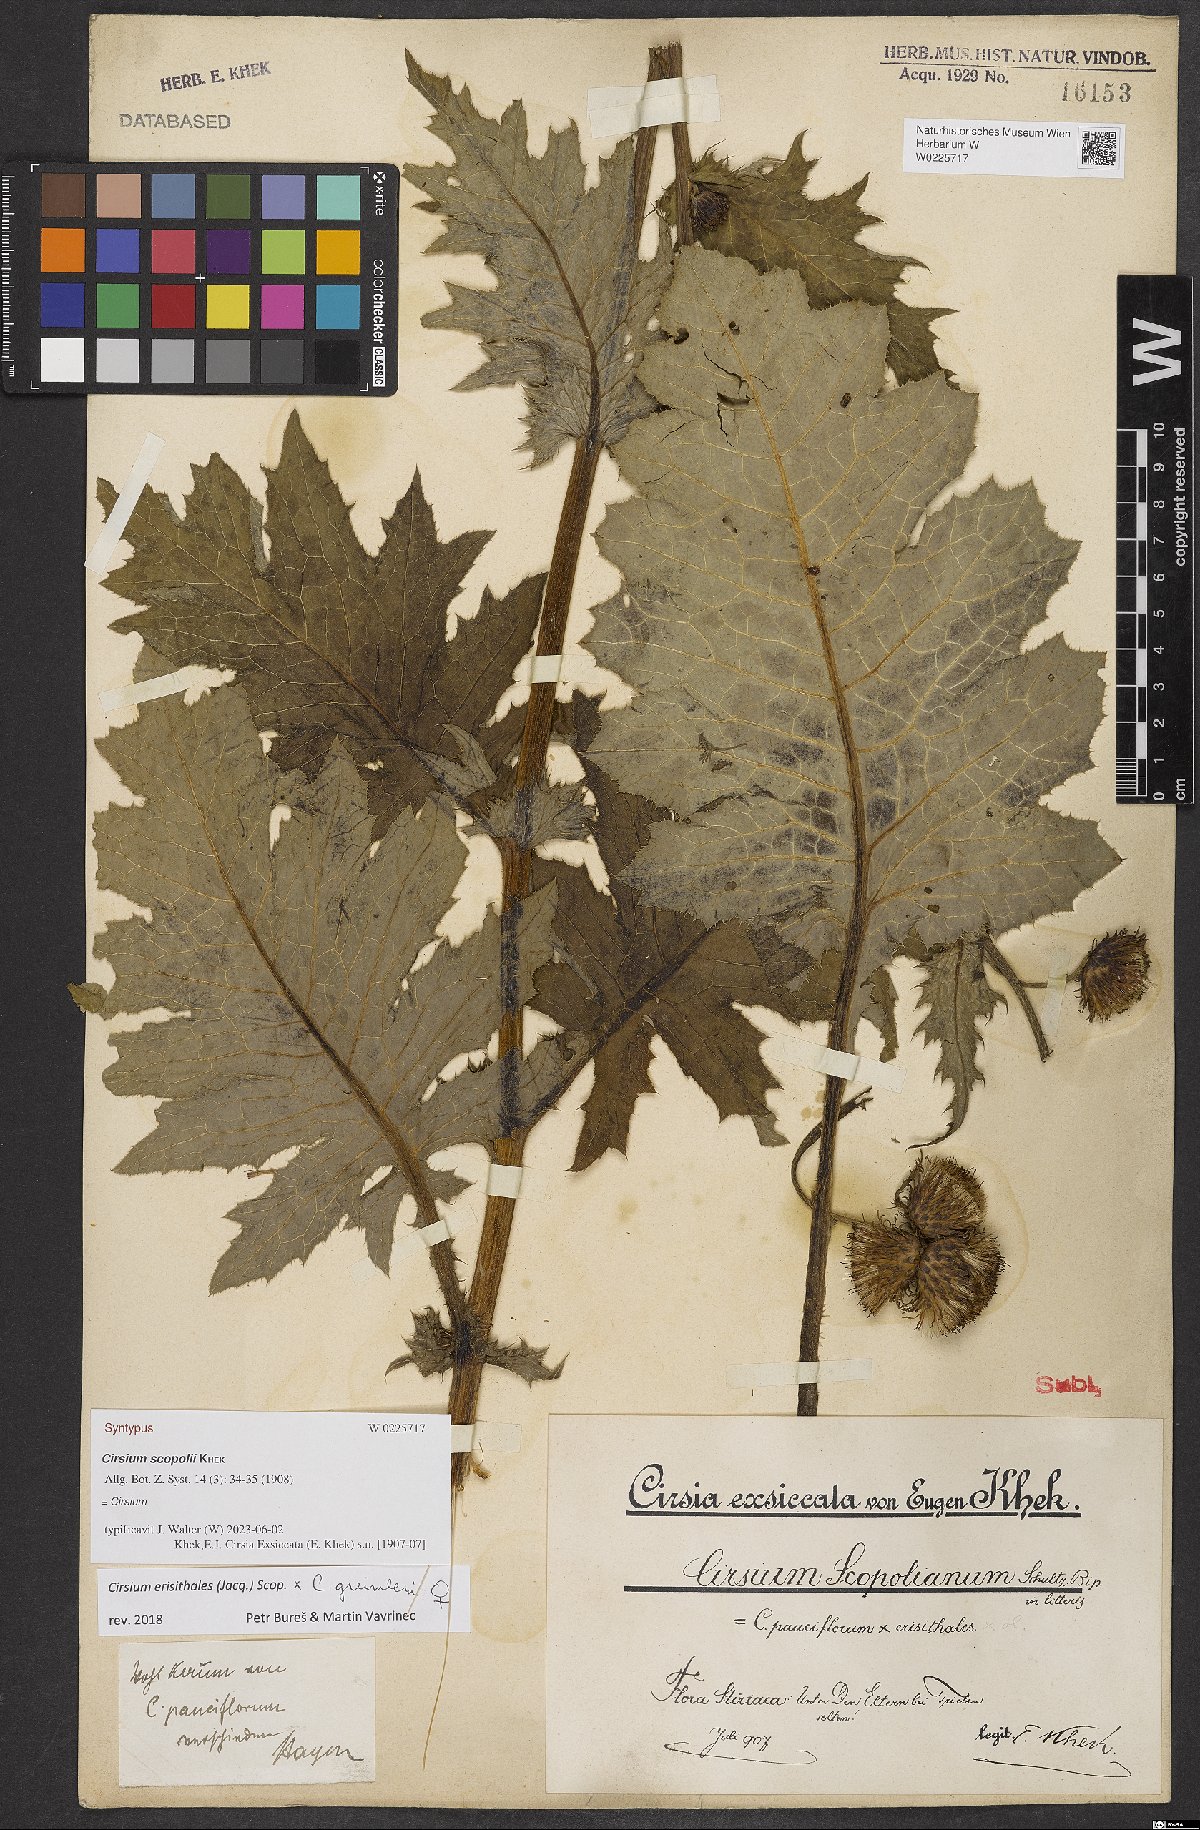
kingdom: Plantae
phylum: Tracheophyta
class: Magnoliopsida
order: Asterales
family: Asteraceae
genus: Cirsium
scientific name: Cirsium scopolii
